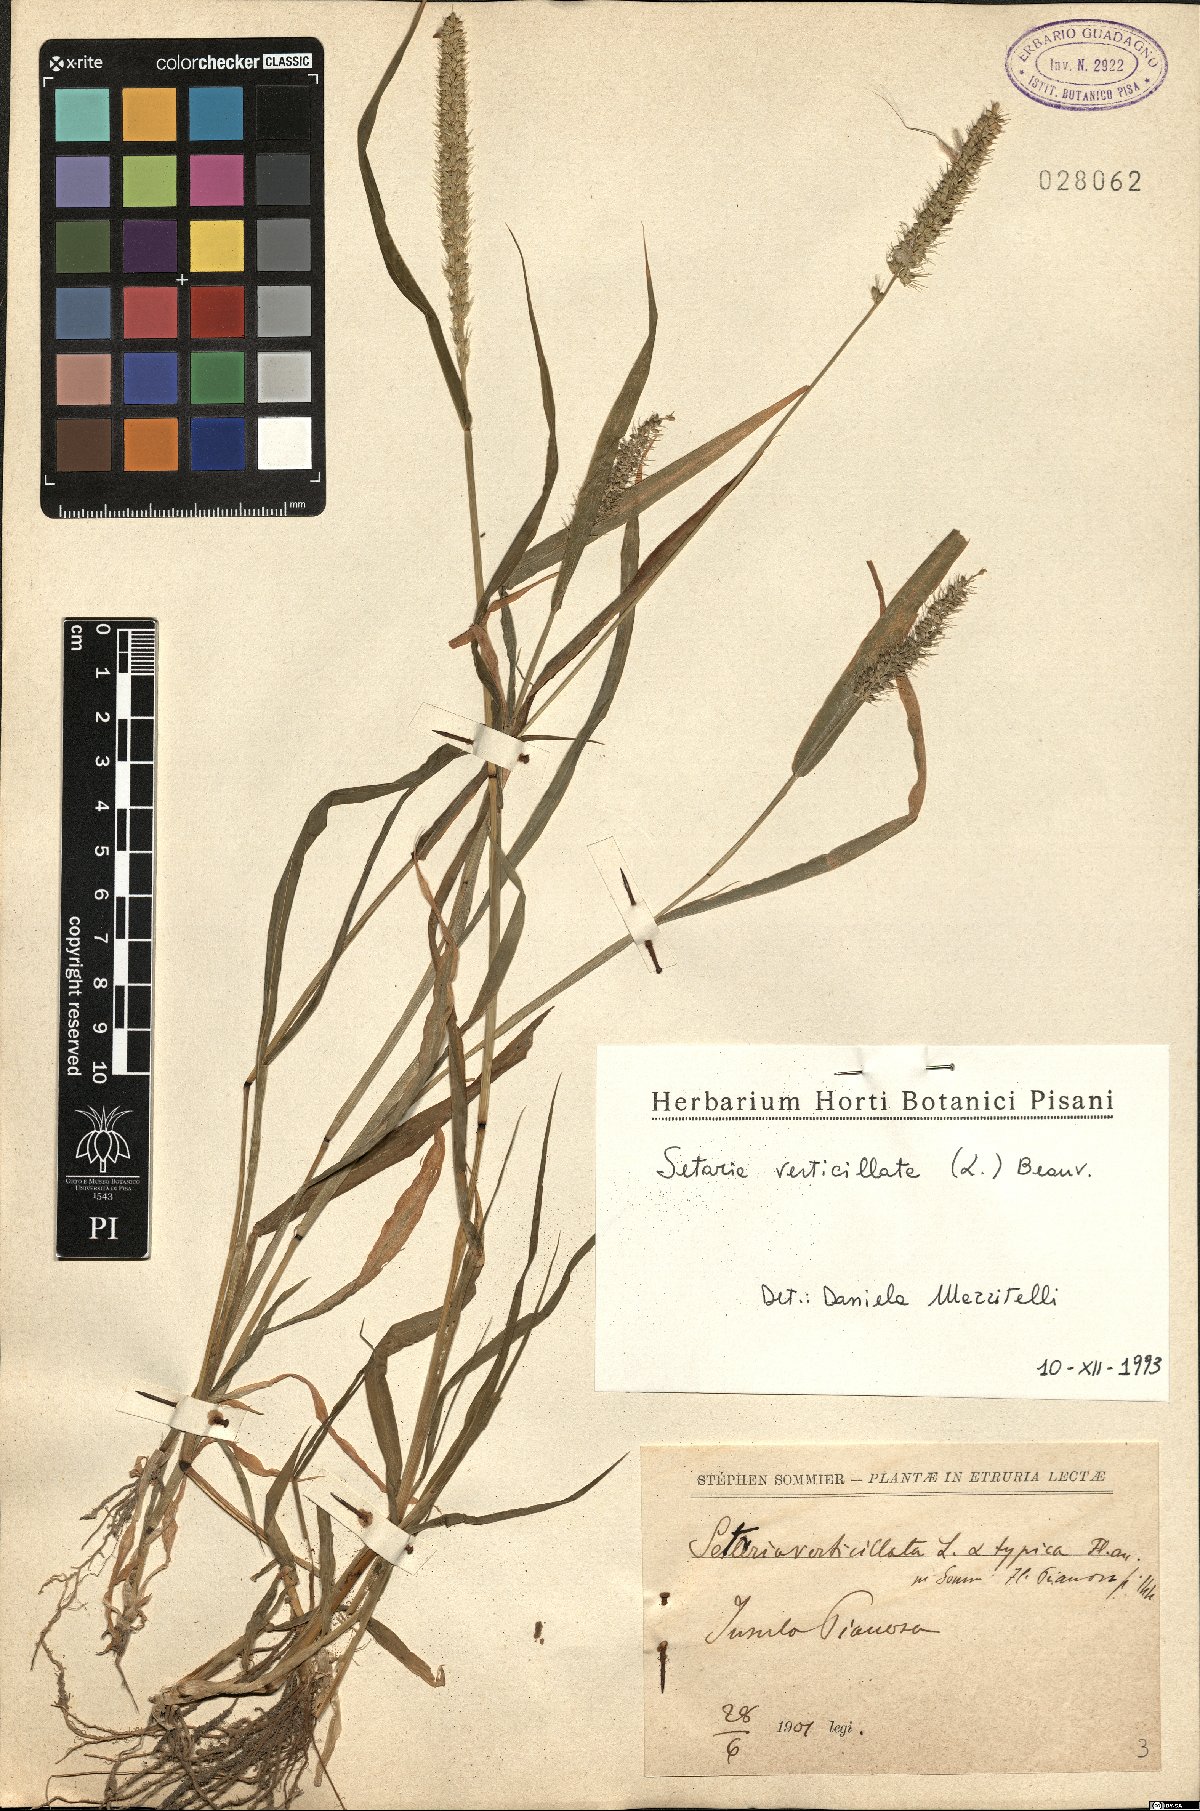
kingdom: Plantae
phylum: Tracheophyta
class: Liliopsida
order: Poales
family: Poaceae
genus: Setaria
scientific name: Setaria verticillata
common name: Hooked bristlegrass
